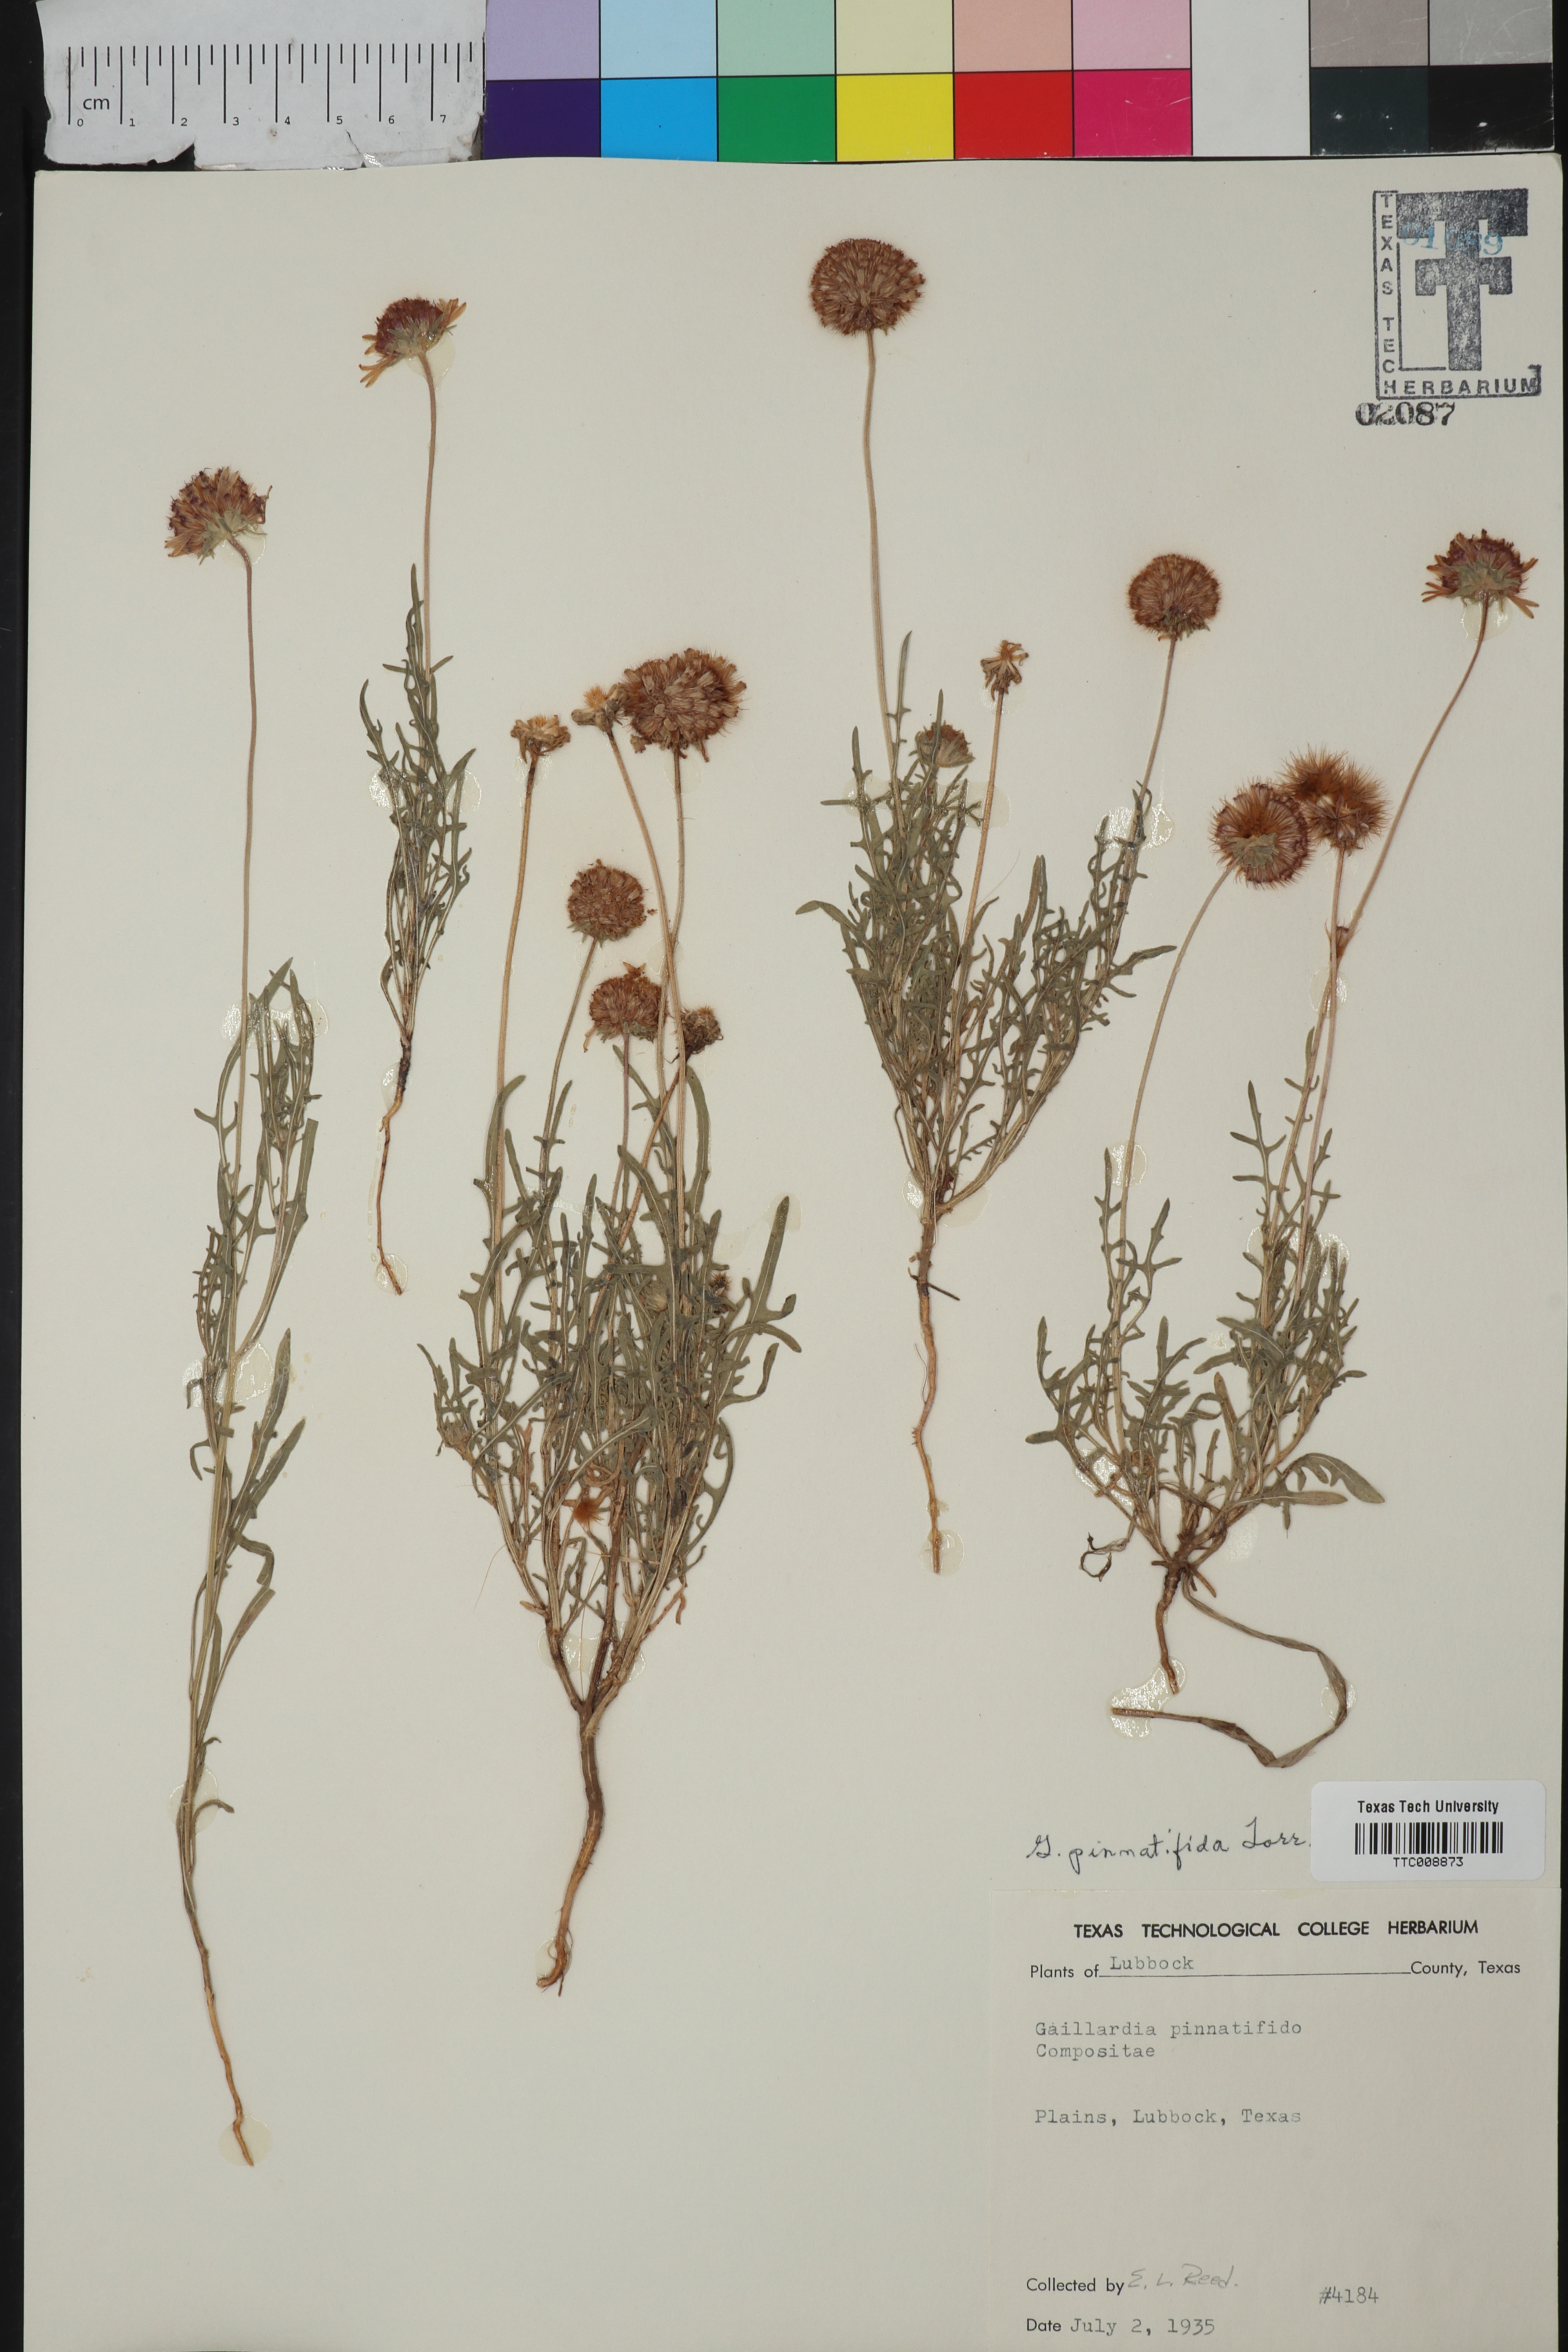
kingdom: Plantae
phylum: Tracheophyta
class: Magnoliopsida
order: Asterales
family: Asteraceae
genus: Gaillardia
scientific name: Gaillardia pinnatifida
